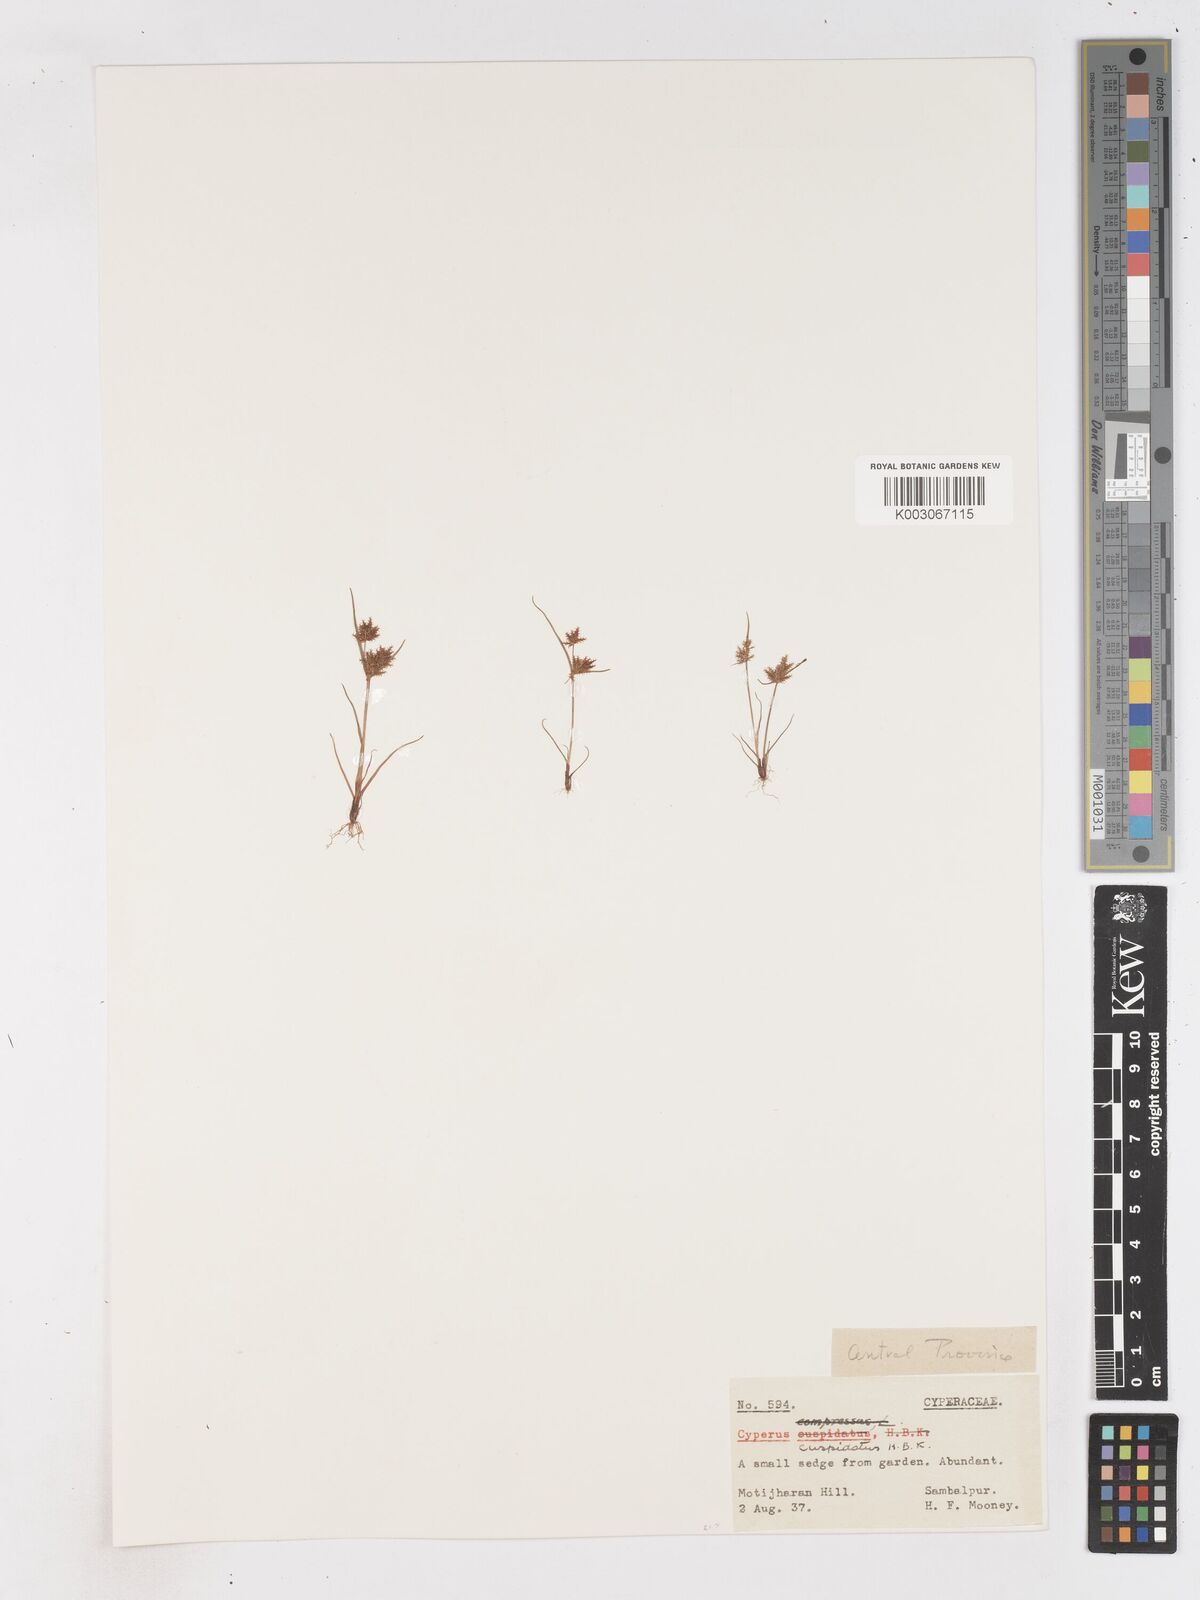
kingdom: Plantae
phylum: Tracheophyta
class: Liliopsida
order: Poales
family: Cyperaceae
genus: Cyperus
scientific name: Cyperus cuspidatus
